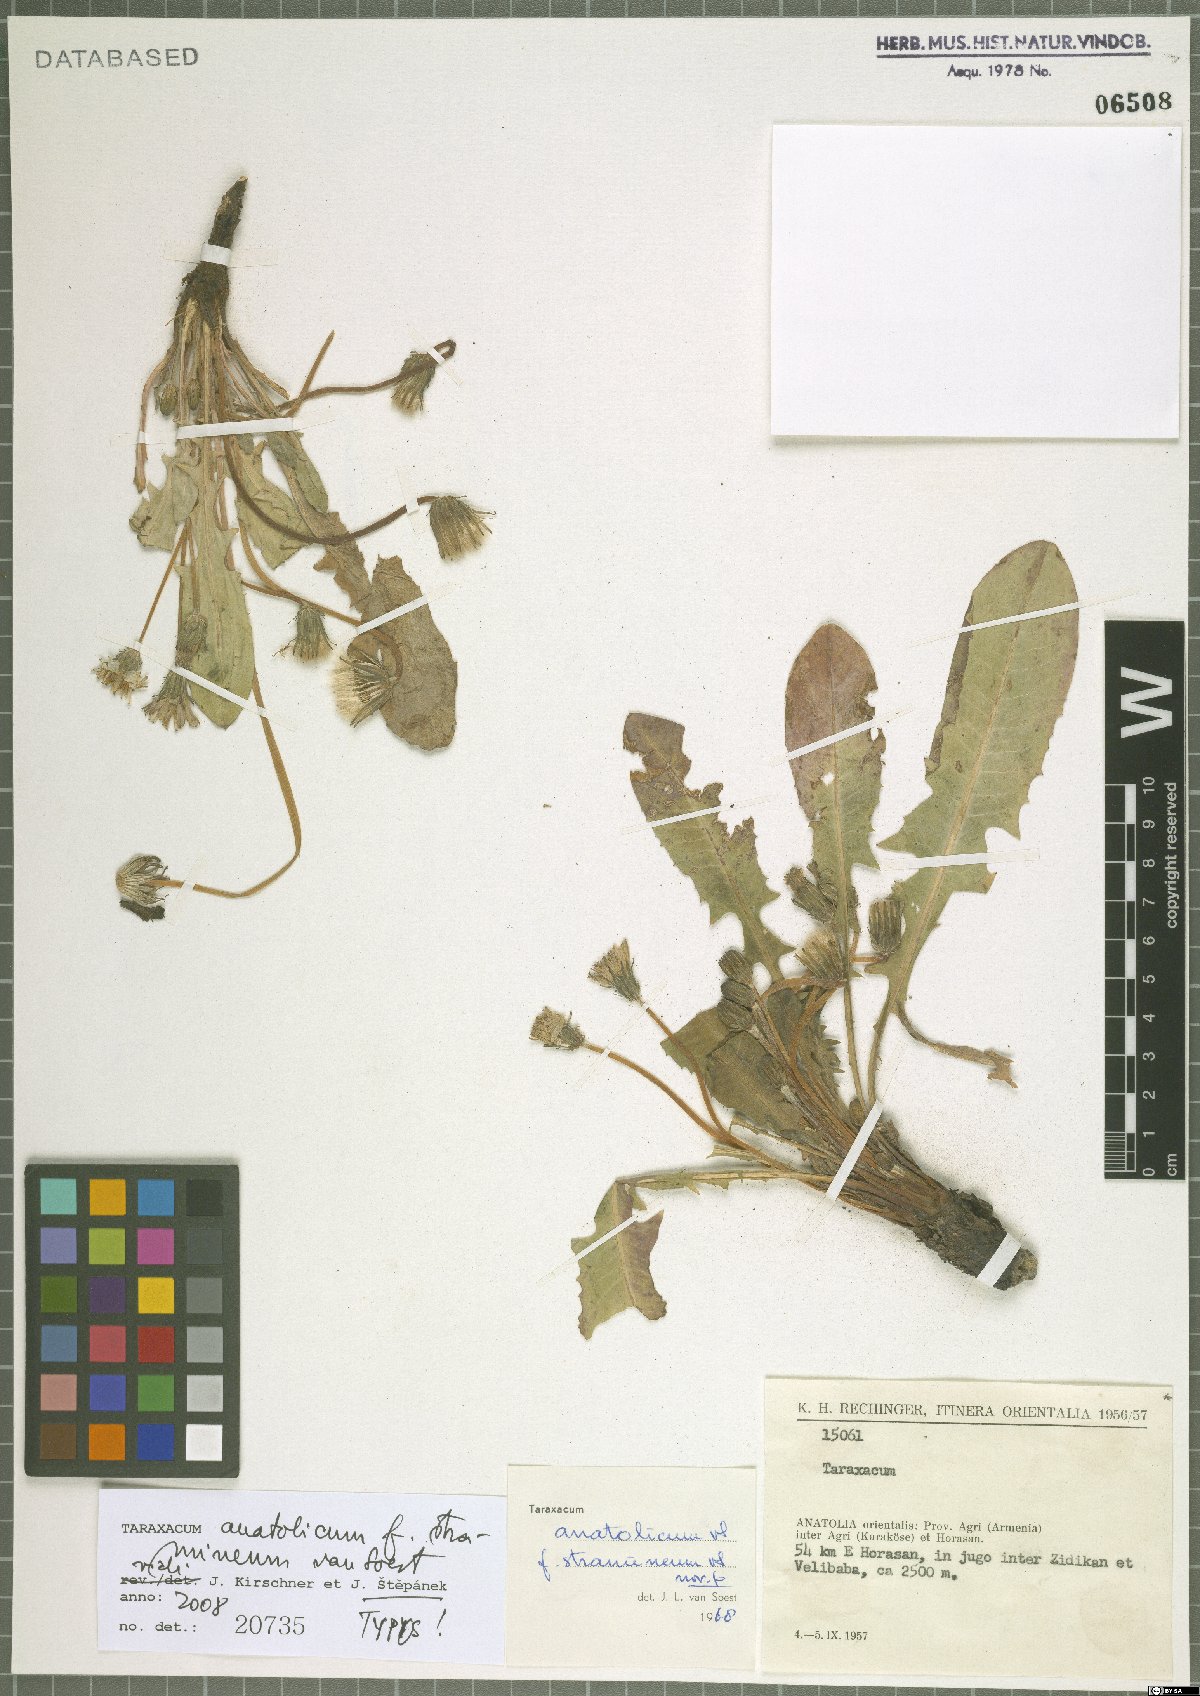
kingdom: Plantae
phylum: Tracheophyta
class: Magnoliopsida
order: Asterales
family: Asteraceae
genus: Taraxacum
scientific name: Taraxacum stenocephalum
